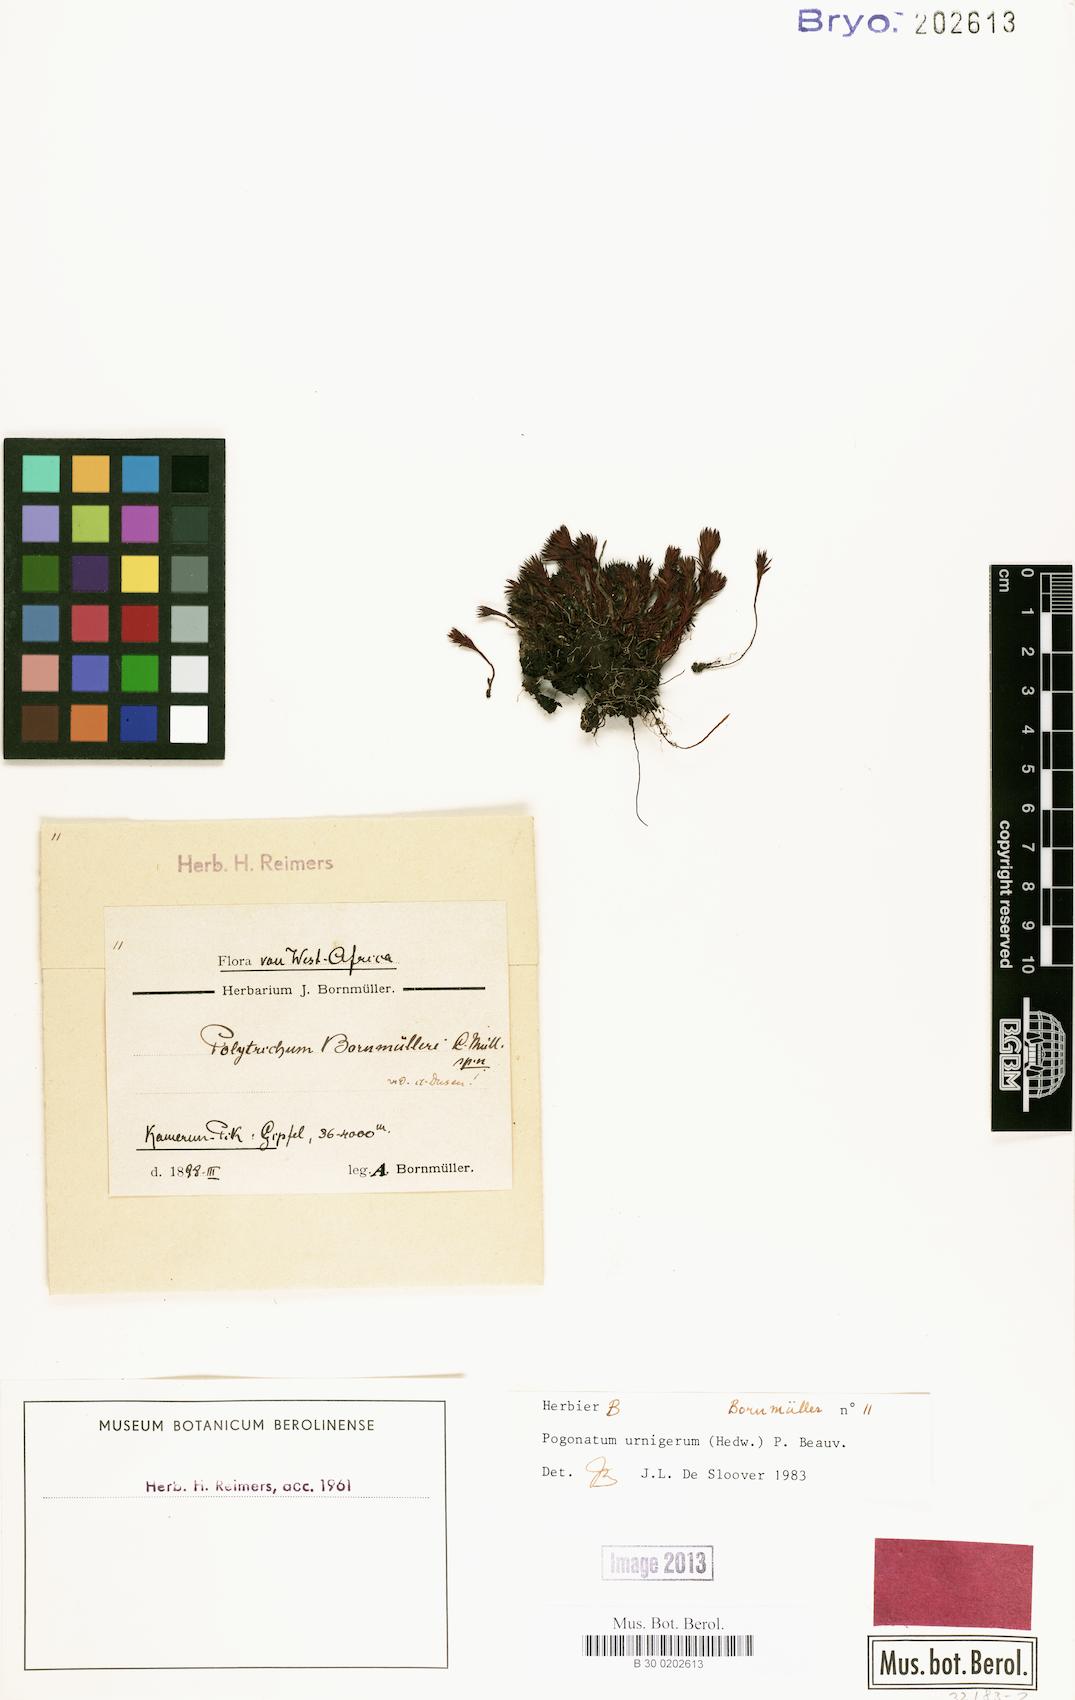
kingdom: Plantae
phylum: Bryophyta
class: Polytrichopsida
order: Polytrichales
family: Polytrichaceae
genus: Pogonatum
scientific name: Pogonatum urnigerum
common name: Urn hair moss
